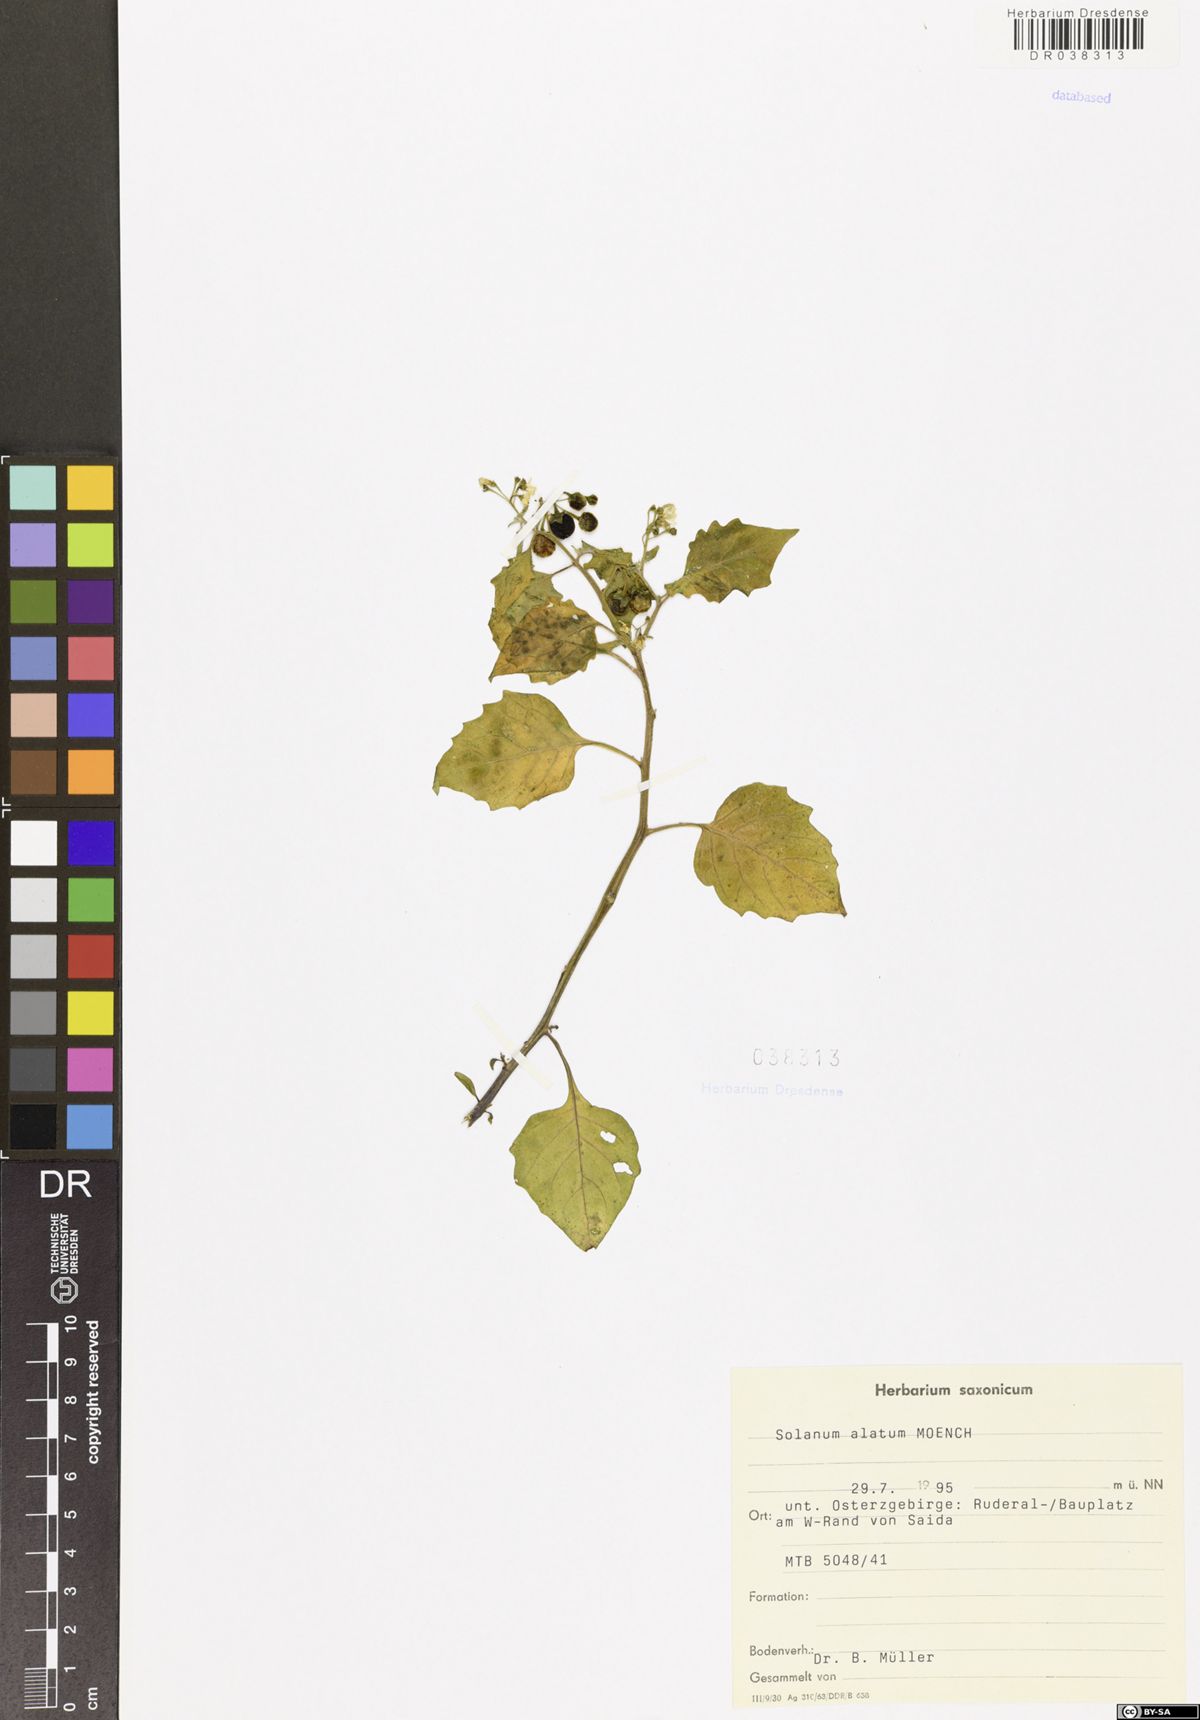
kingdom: Plantae
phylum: Tracheophyta
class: Magnoliopsida
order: Solanales
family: Solanaceae
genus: Solanum
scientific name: Solanum alatum
